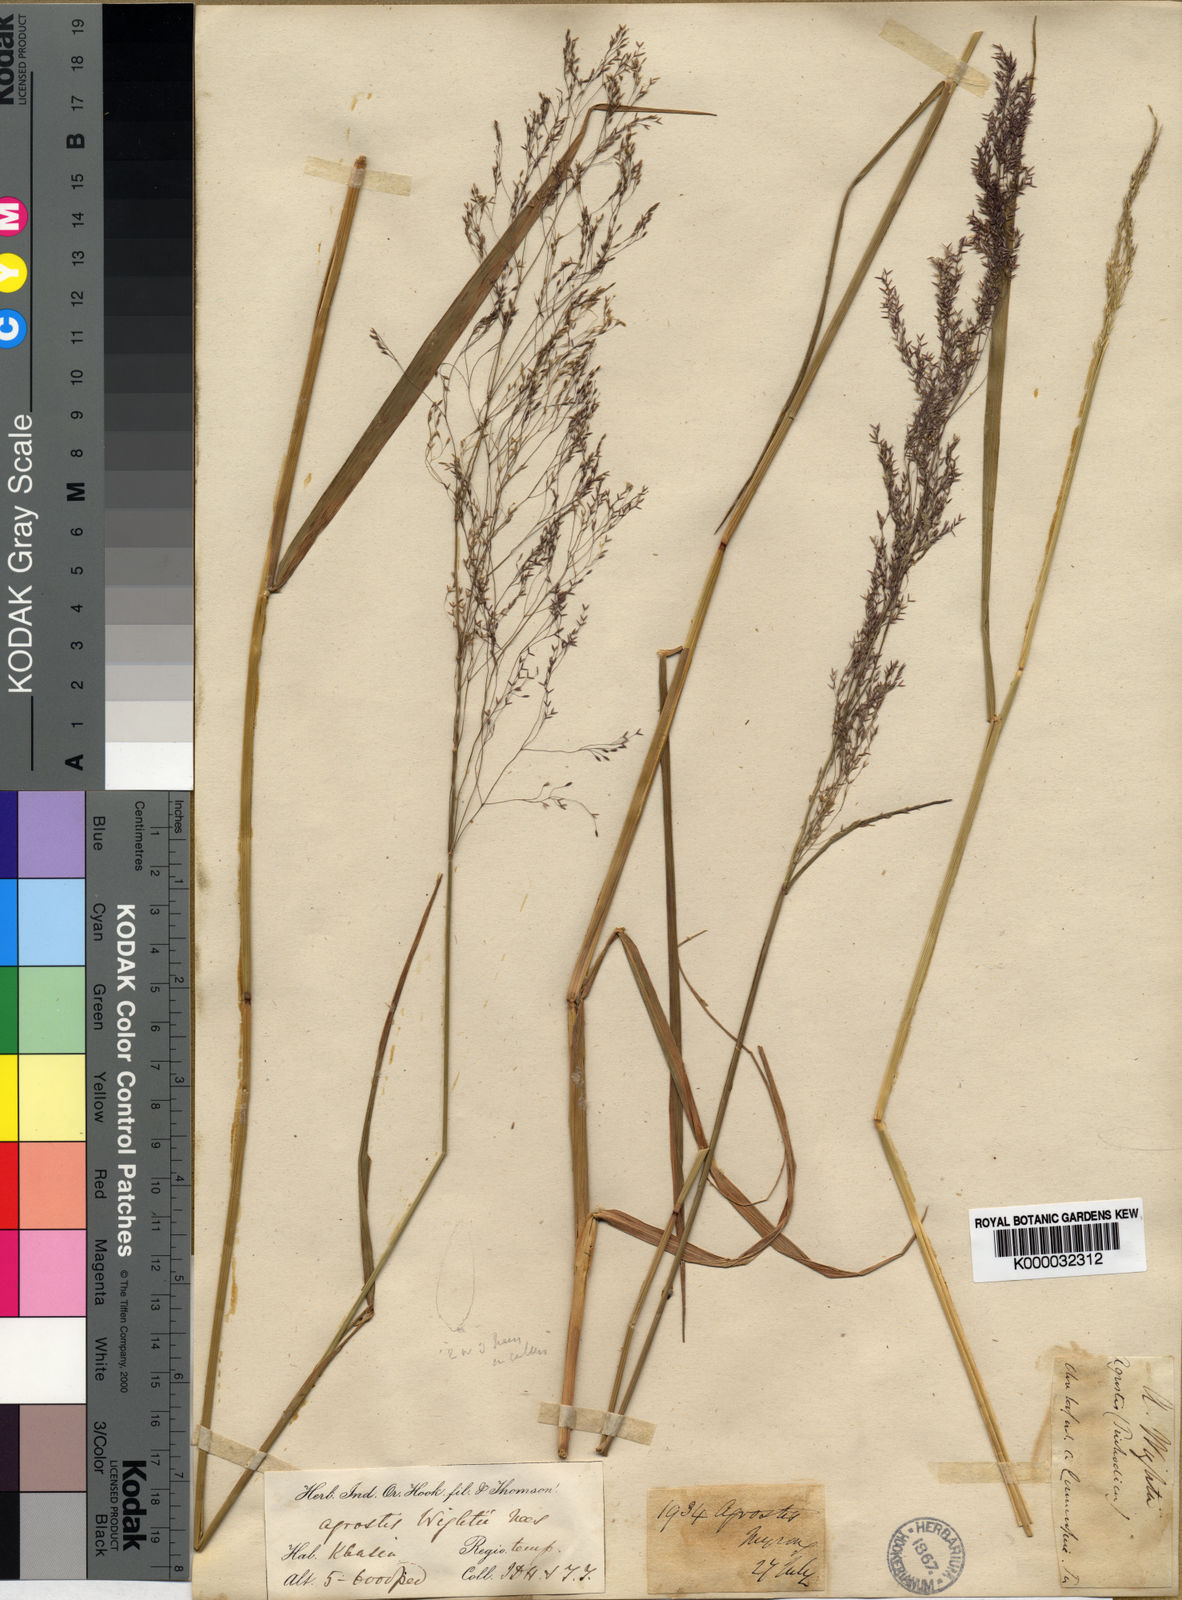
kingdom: Plantae
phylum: Tracheophyta
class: Liliopsida
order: Poales
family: Poaceae
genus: Agrostis
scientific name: Agrostis micrantha
